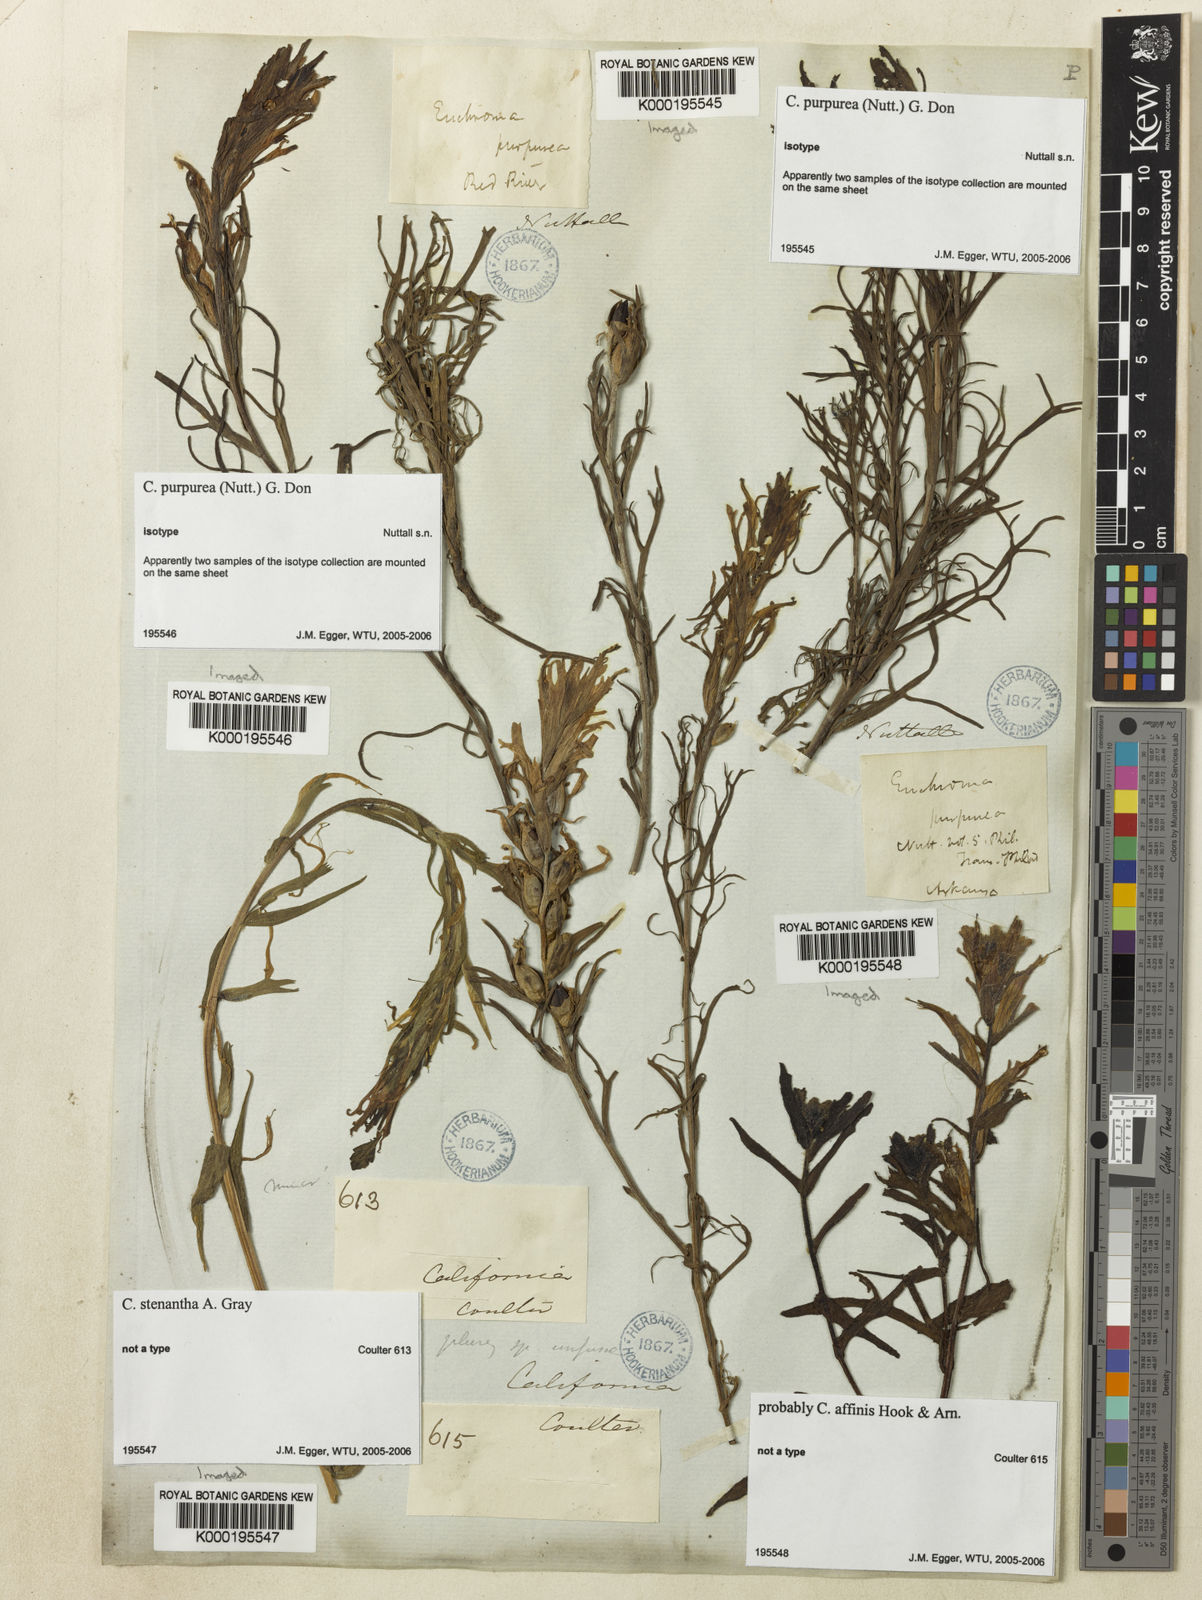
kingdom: Plantae
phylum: Tracheophyta
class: Magnoliopsida
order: Lamiales
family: Orobanchaceae
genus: Castilleja
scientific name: Castilleja purpurea
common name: Plains paintbrush
